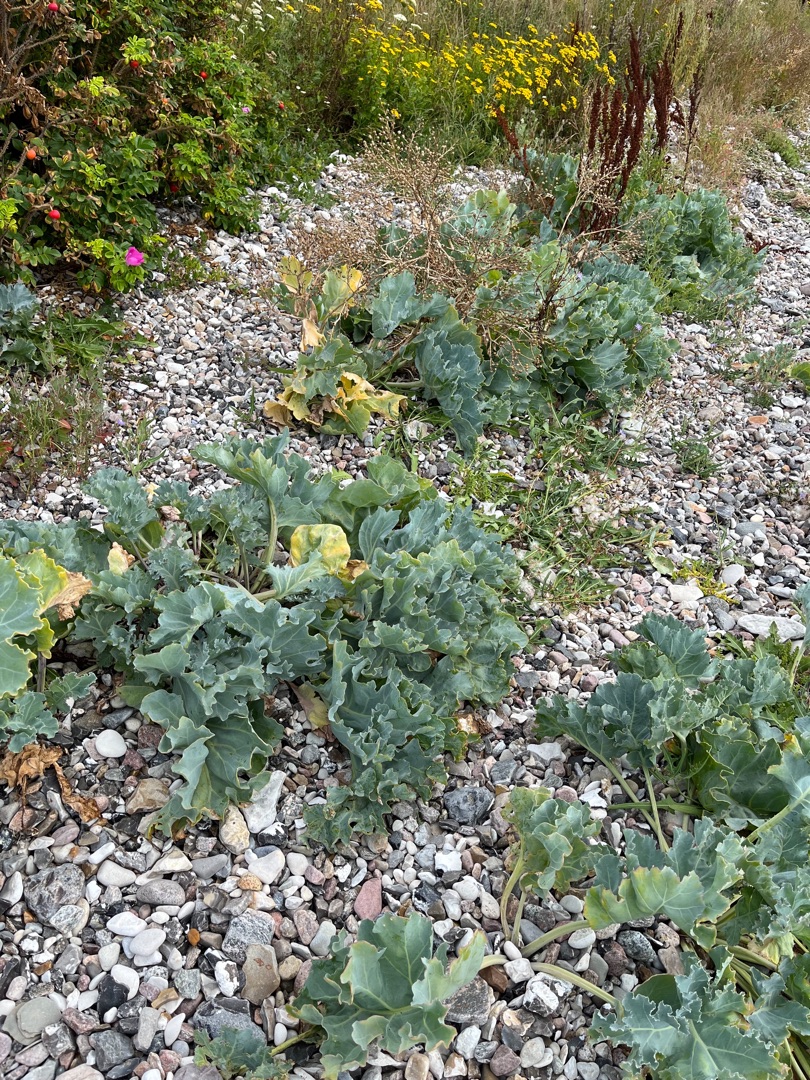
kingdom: Plantae
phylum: Tracheophyta
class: Magnoliopsida
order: Brassicales
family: Brassicaceae
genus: Crambe
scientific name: Crambe maritima
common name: Strandkål
